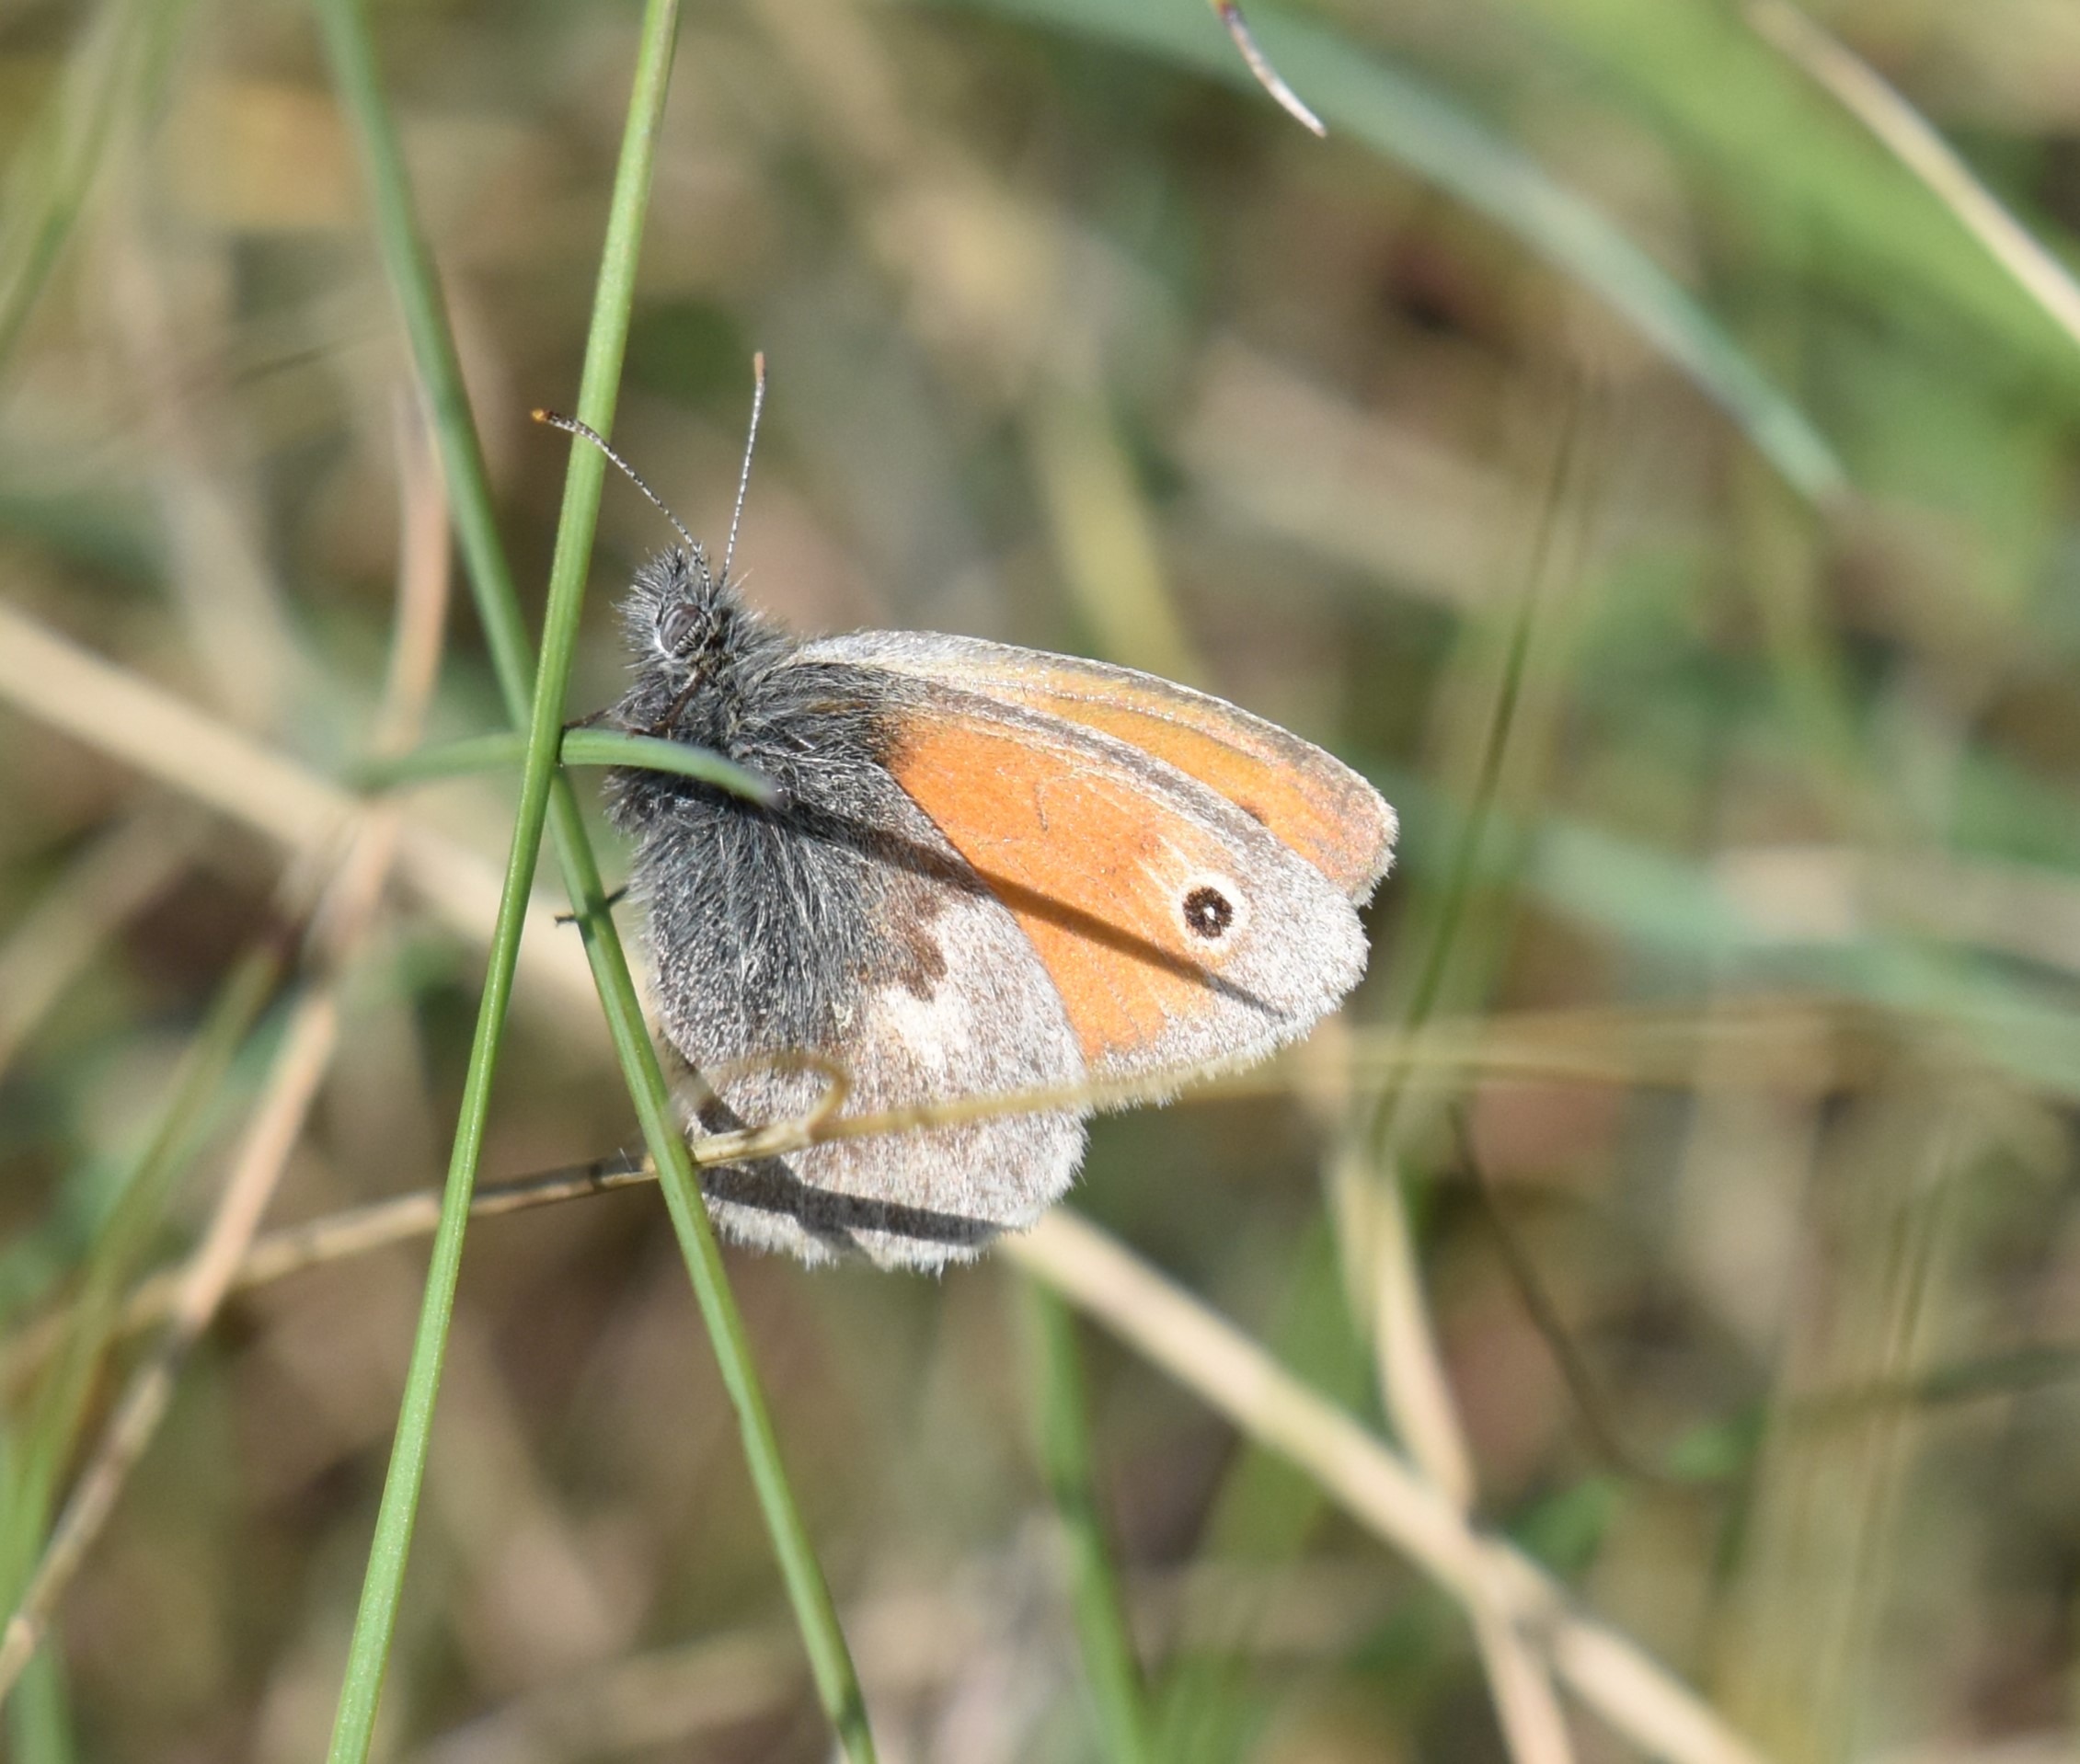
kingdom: Animalia
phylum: Arthropoda
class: Insecta
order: Lepidoptera
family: Nymphalidae
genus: Coenonympha
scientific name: Coenonympha pamphilus
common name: Okkergul randøje
